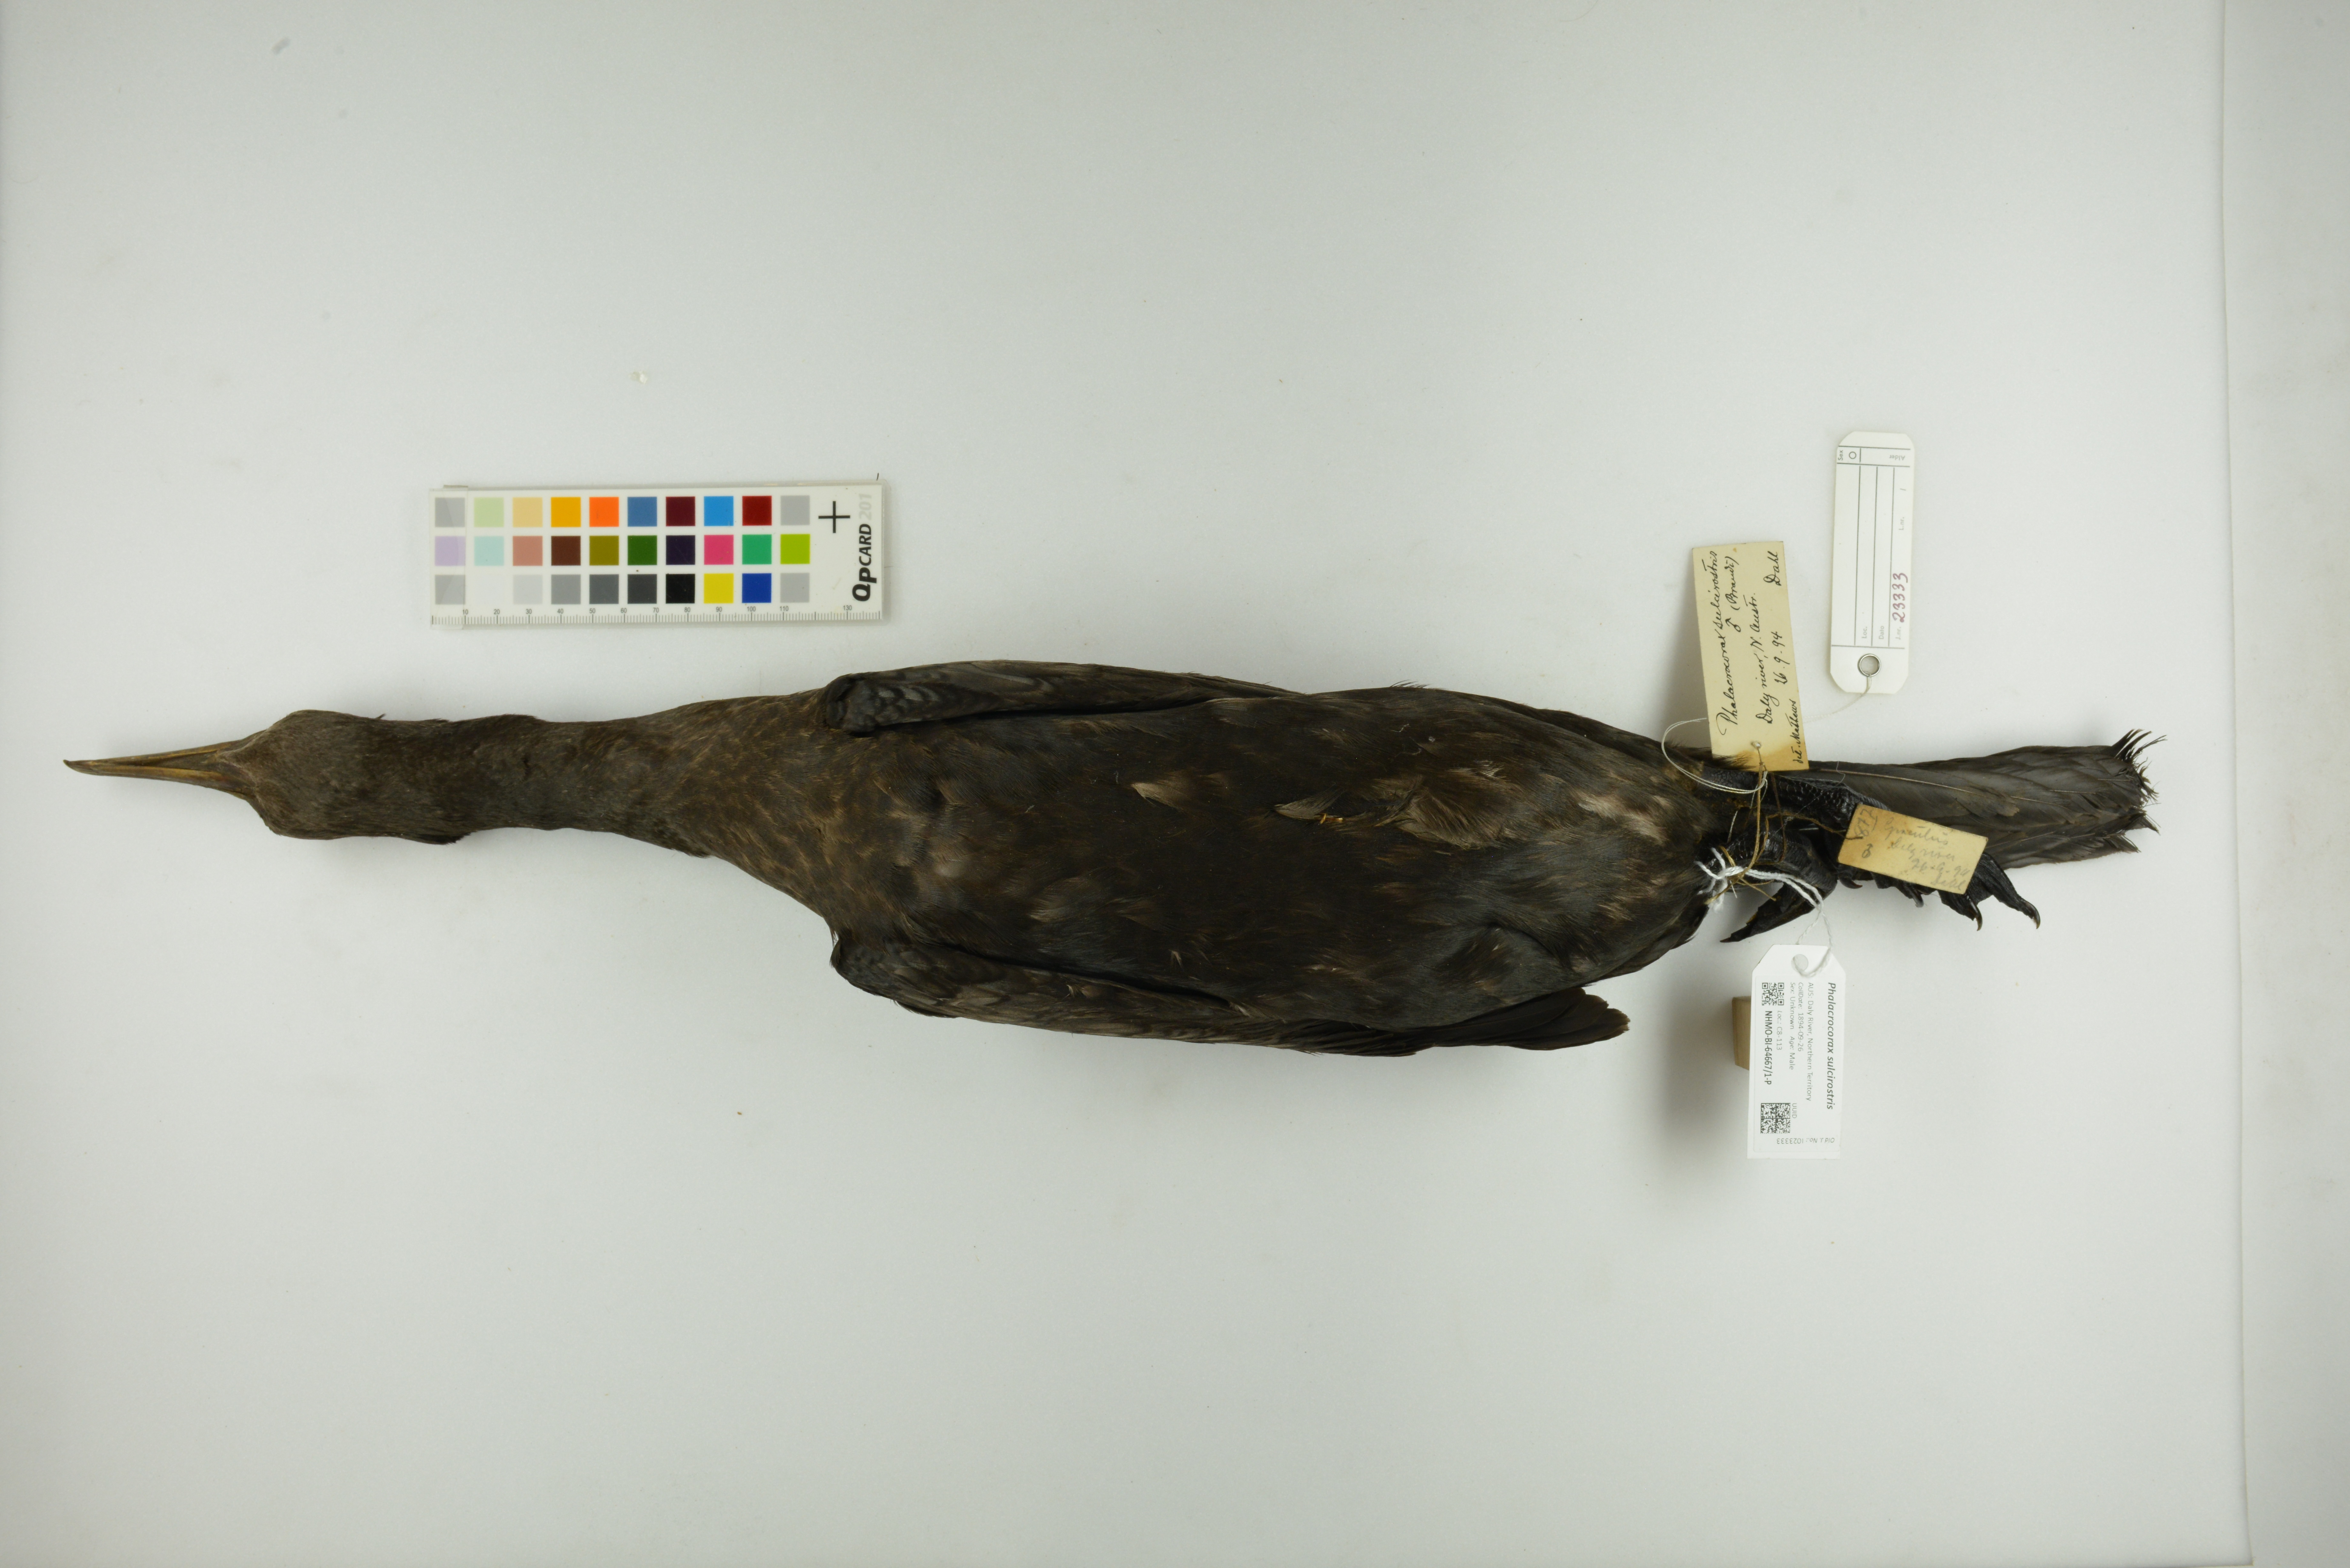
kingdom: Animalia
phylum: Chordata
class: Aves
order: Suliformes
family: Phalacrocoracidae
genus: Phalacrocorax
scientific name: Phalacrocorax sulcirostris
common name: Little black cormorant
